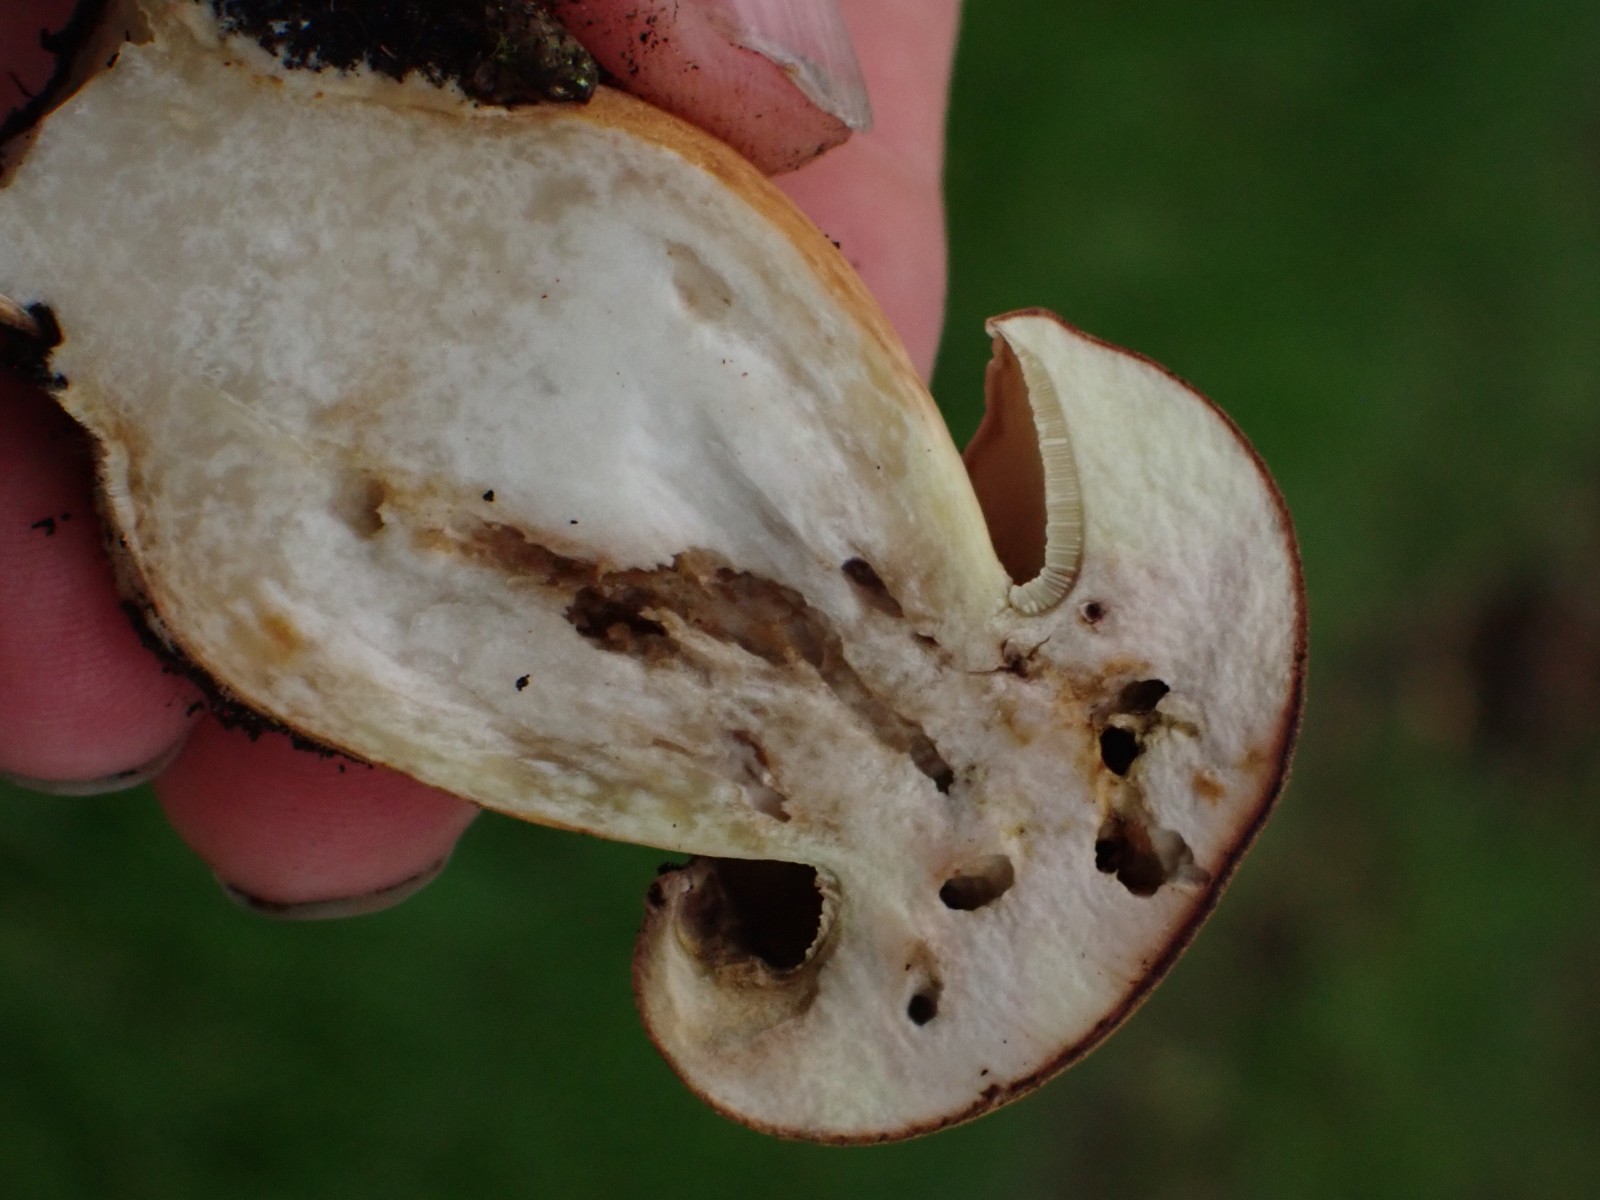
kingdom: Fungi
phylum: Basidiomycota
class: Agaricomycetes
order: Boletales
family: Boletaceae
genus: Imleria
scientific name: Imleria badia
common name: brunstokket rørhat
